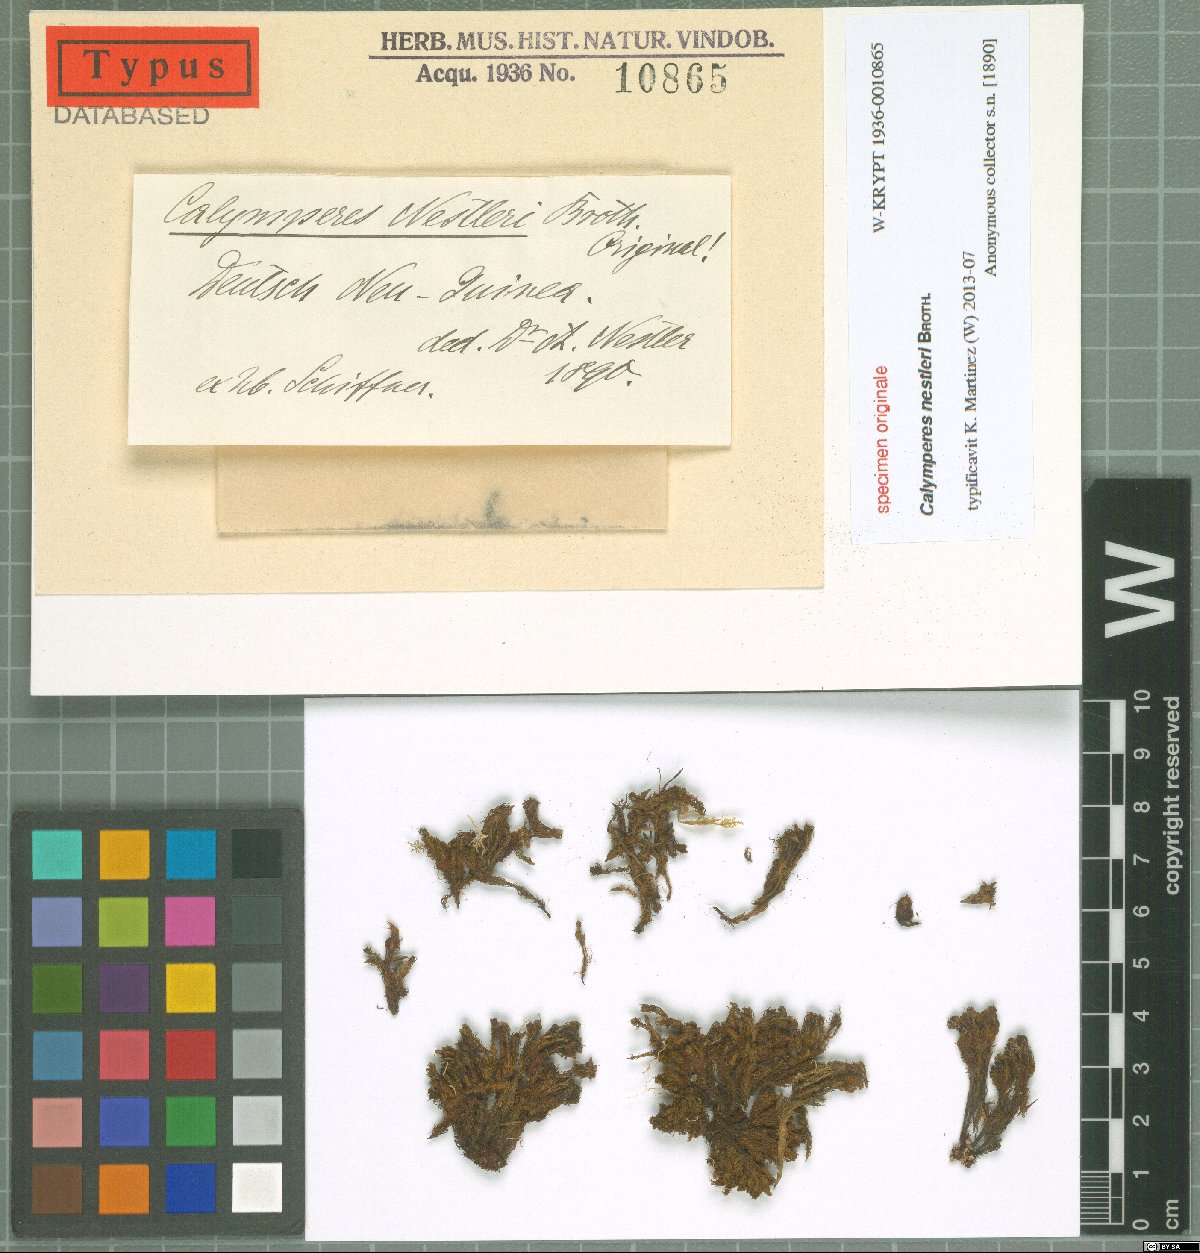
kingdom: Plantae
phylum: Bryophyta
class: Bryopsida
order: Dicranales
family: Calymperaceae
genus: Calymperes
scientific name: Calymperes
